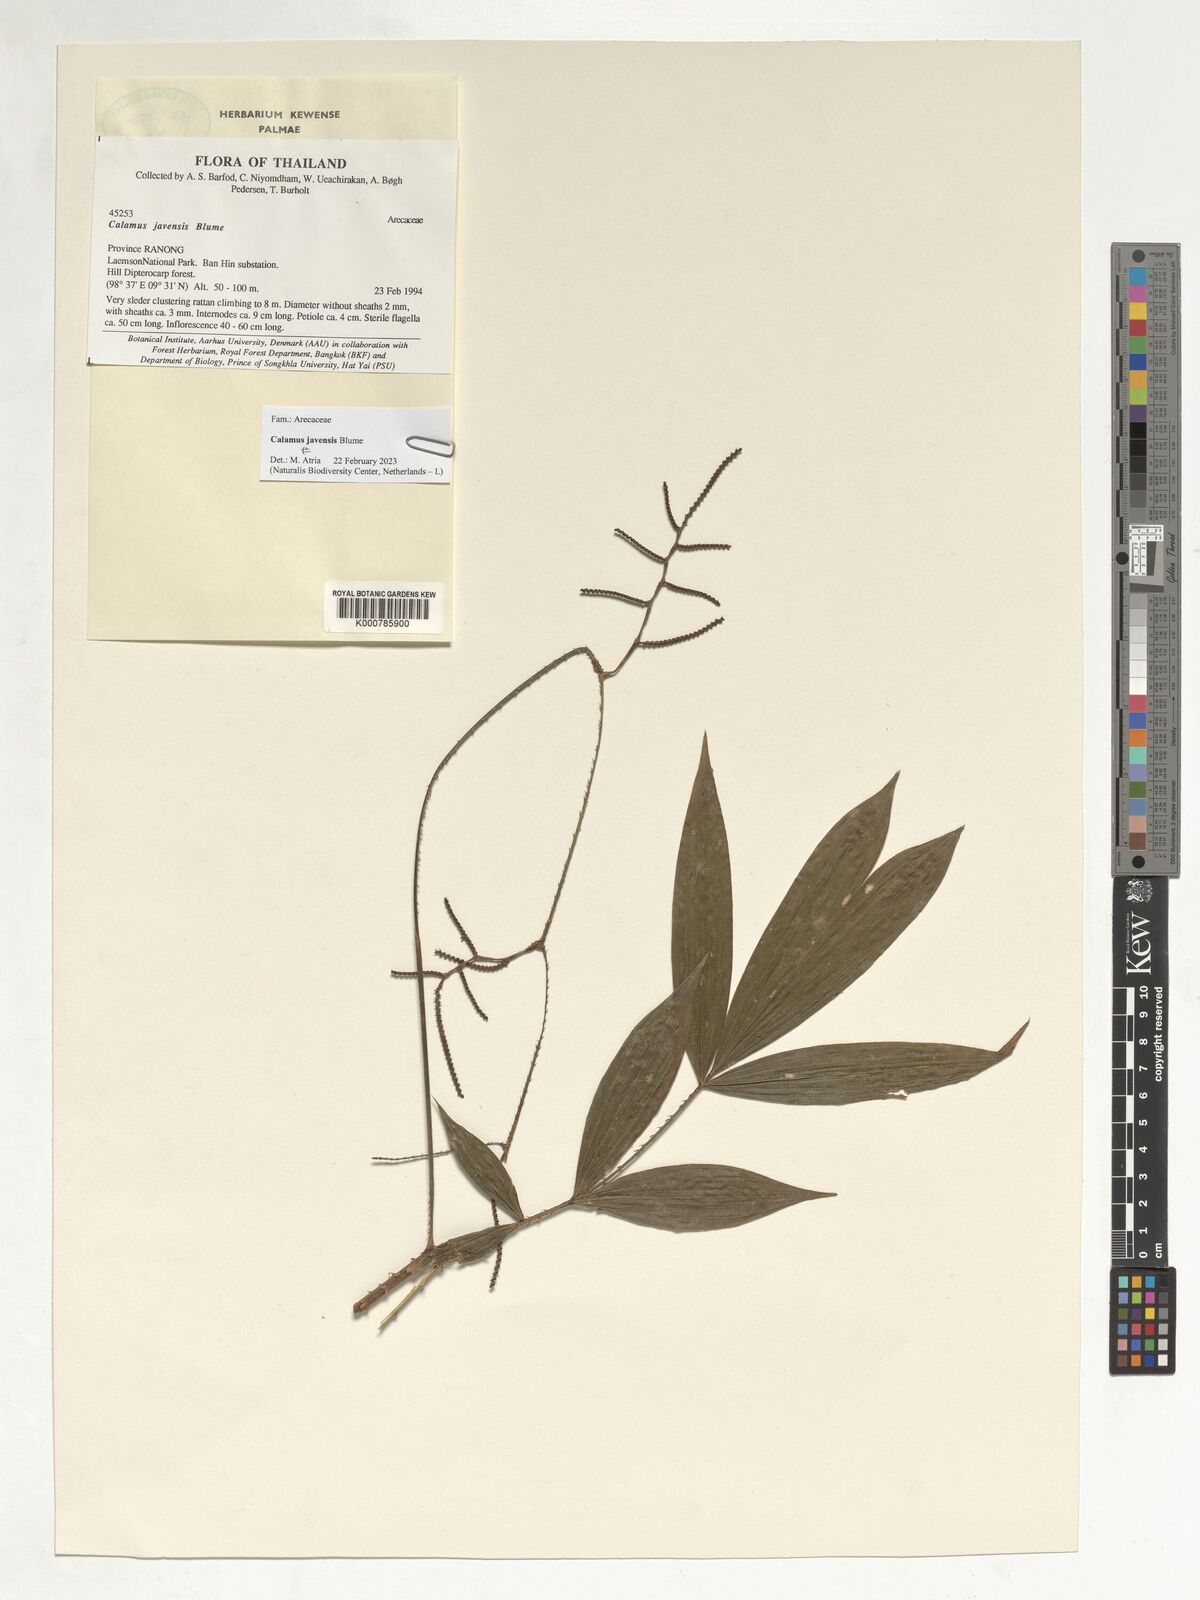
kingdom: Plantae
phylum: Tracheophyta
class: Liliopsida
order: Arecales
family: Arecaceae
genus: Calamus
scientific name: Calamus javensis
